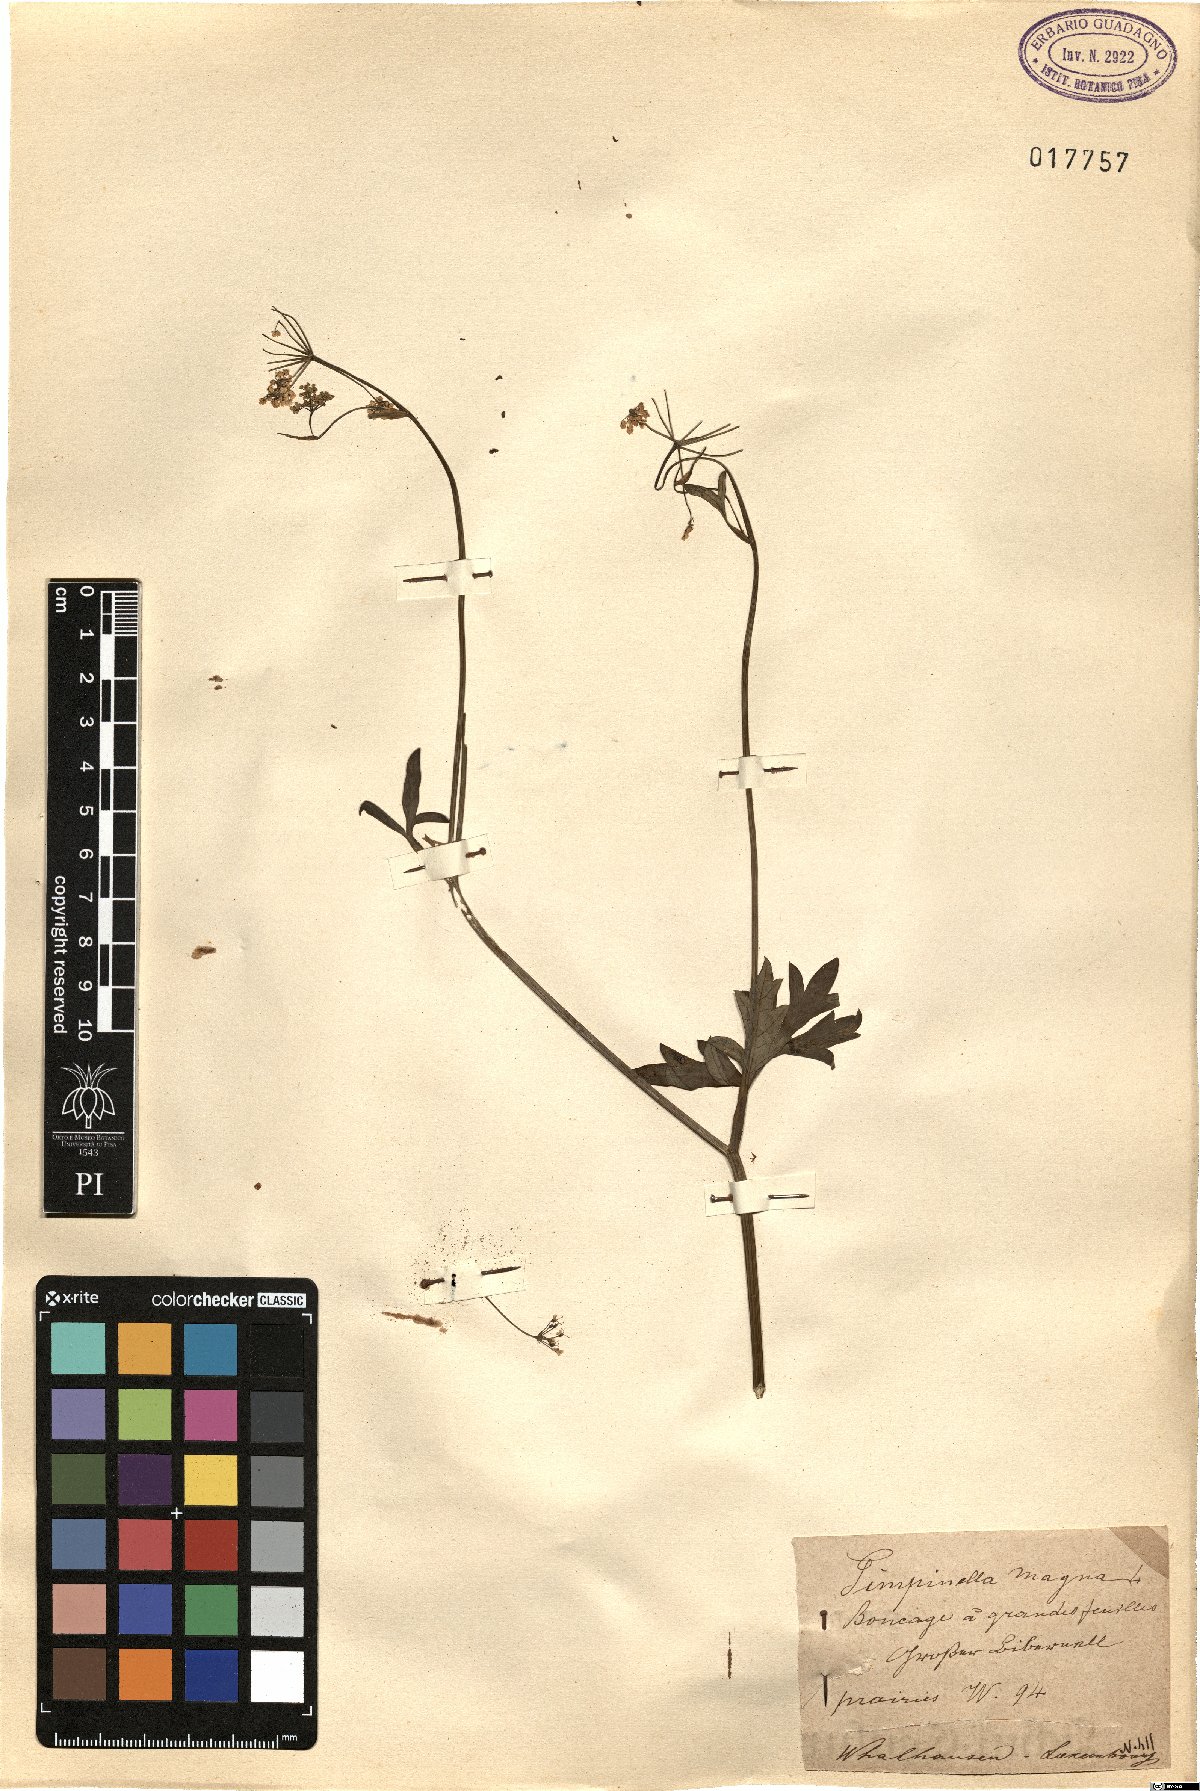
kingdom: Plantae
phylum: Tracheophyta
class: Magnoliopsida
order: Apiales
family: Apiaceae
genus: Pimpinella
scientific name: Pimpinella major
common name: Greater burnet-saxifrage
